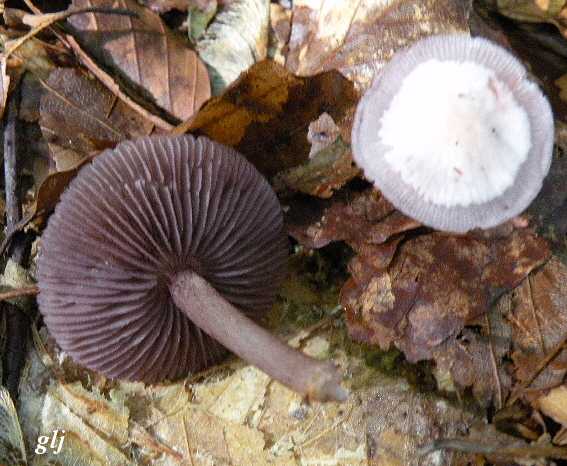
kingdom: Fungi
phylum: Basidiomycota
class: Agaricomycetes
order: Agaricales
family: Mycenaceae
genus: Mycena
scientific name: Mycena pelianthina
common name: mørkbladet huesvamp
